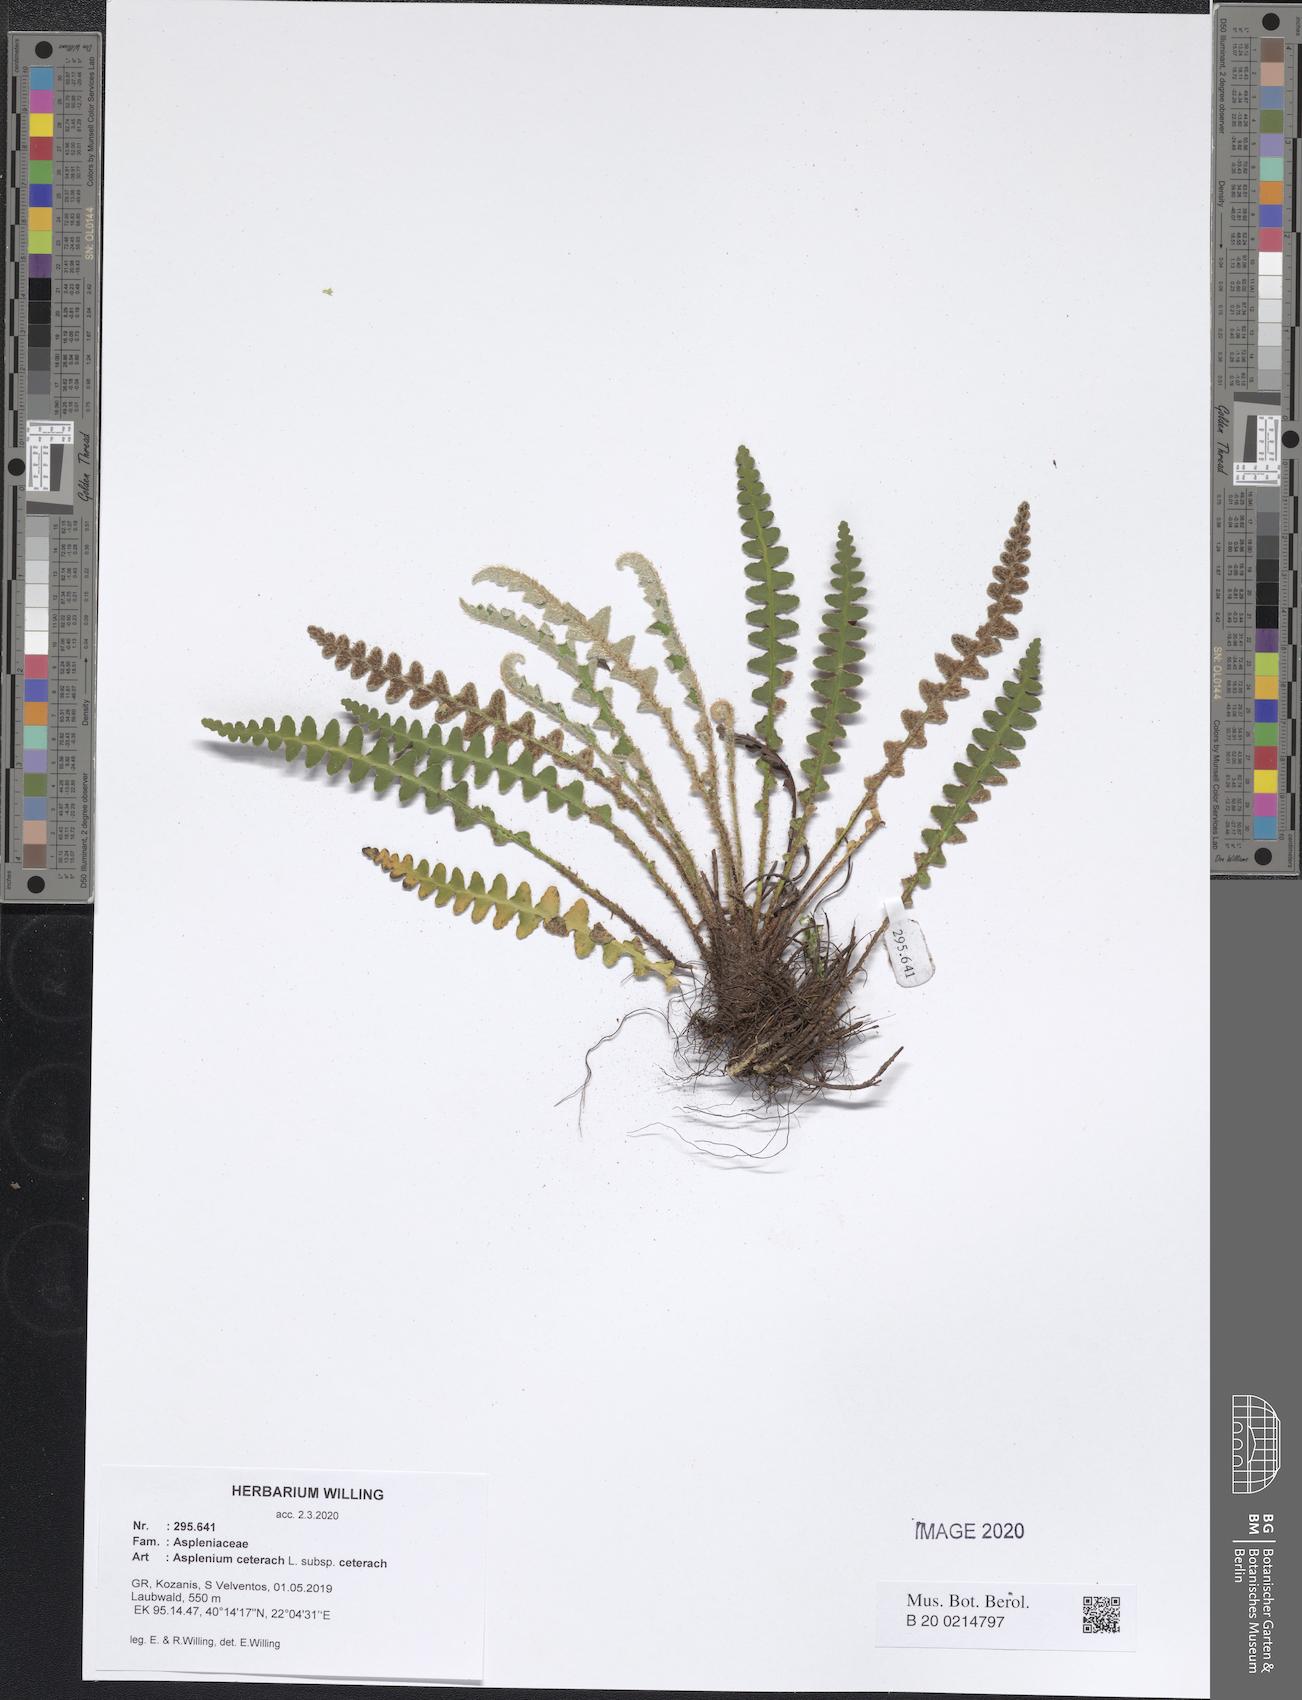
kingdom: Plantae
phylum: Tracheophyta
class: Polypodiopsida
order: Polypodiales
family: Aspleniaceae
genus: Asplenium
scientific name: Asplenium ceterach
